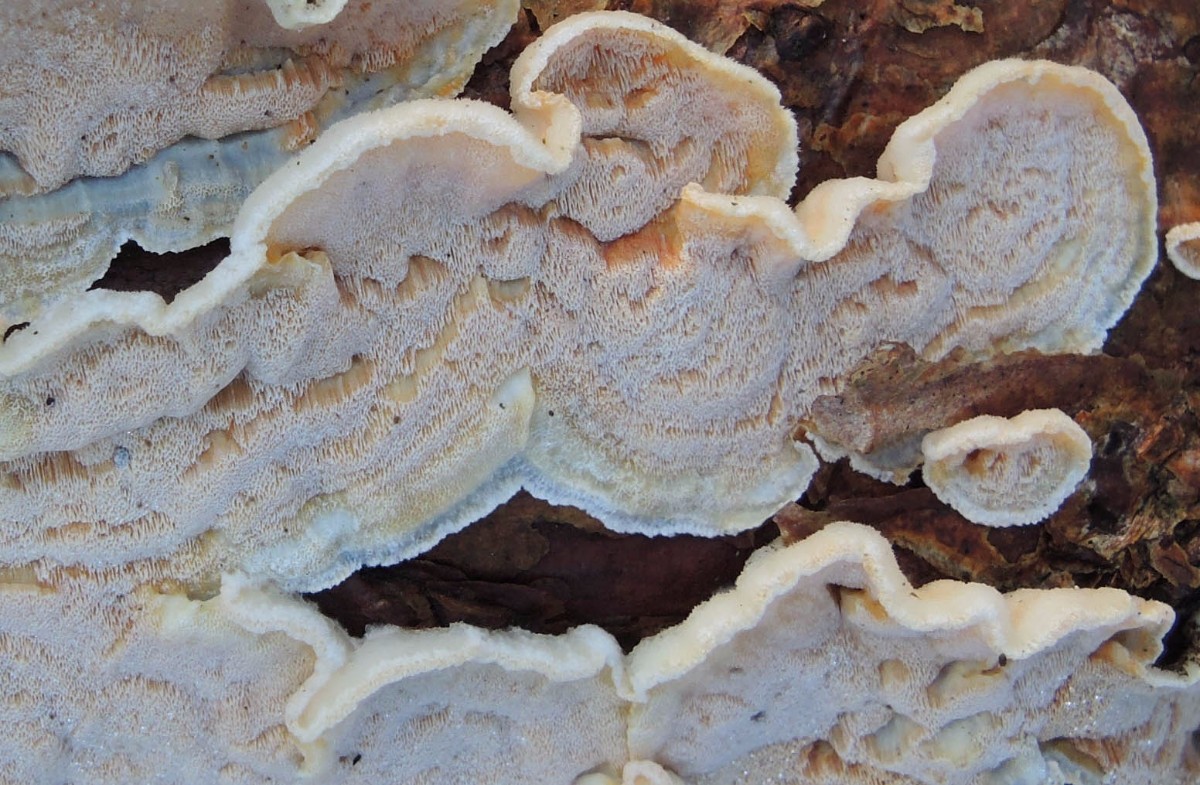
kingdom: Fungi
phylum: Basidiomycota
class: Agaricomycetes
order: Polyporales
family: Incrustoporiaceae
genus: Skeletocutis
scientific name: Skeletocutis amorpha
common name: orange krystalporesvamp
